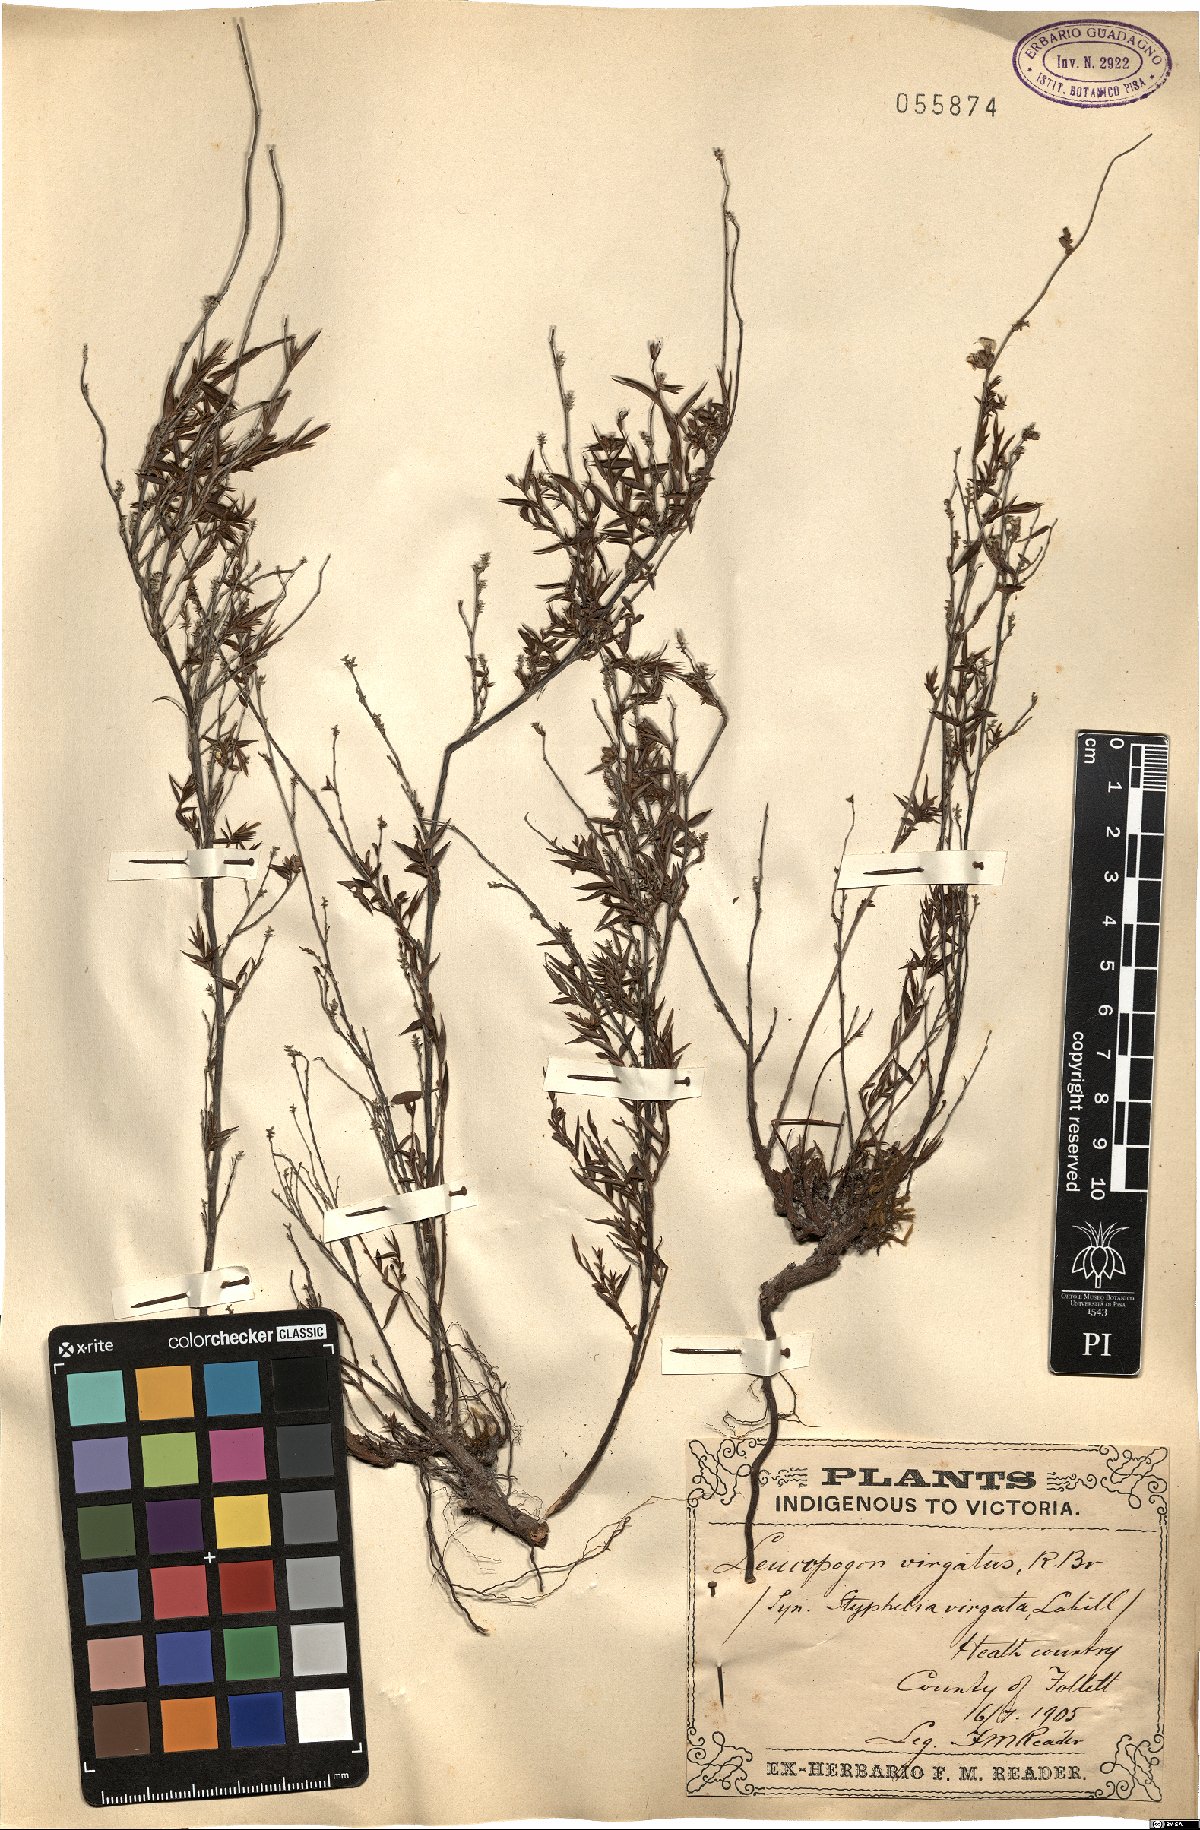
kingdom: Plantae
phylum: Tracheophyta
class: Magnoliopsida
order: Ericales
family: Ericaceae
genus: Leucopogon
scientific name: Leucopogon virgatus
